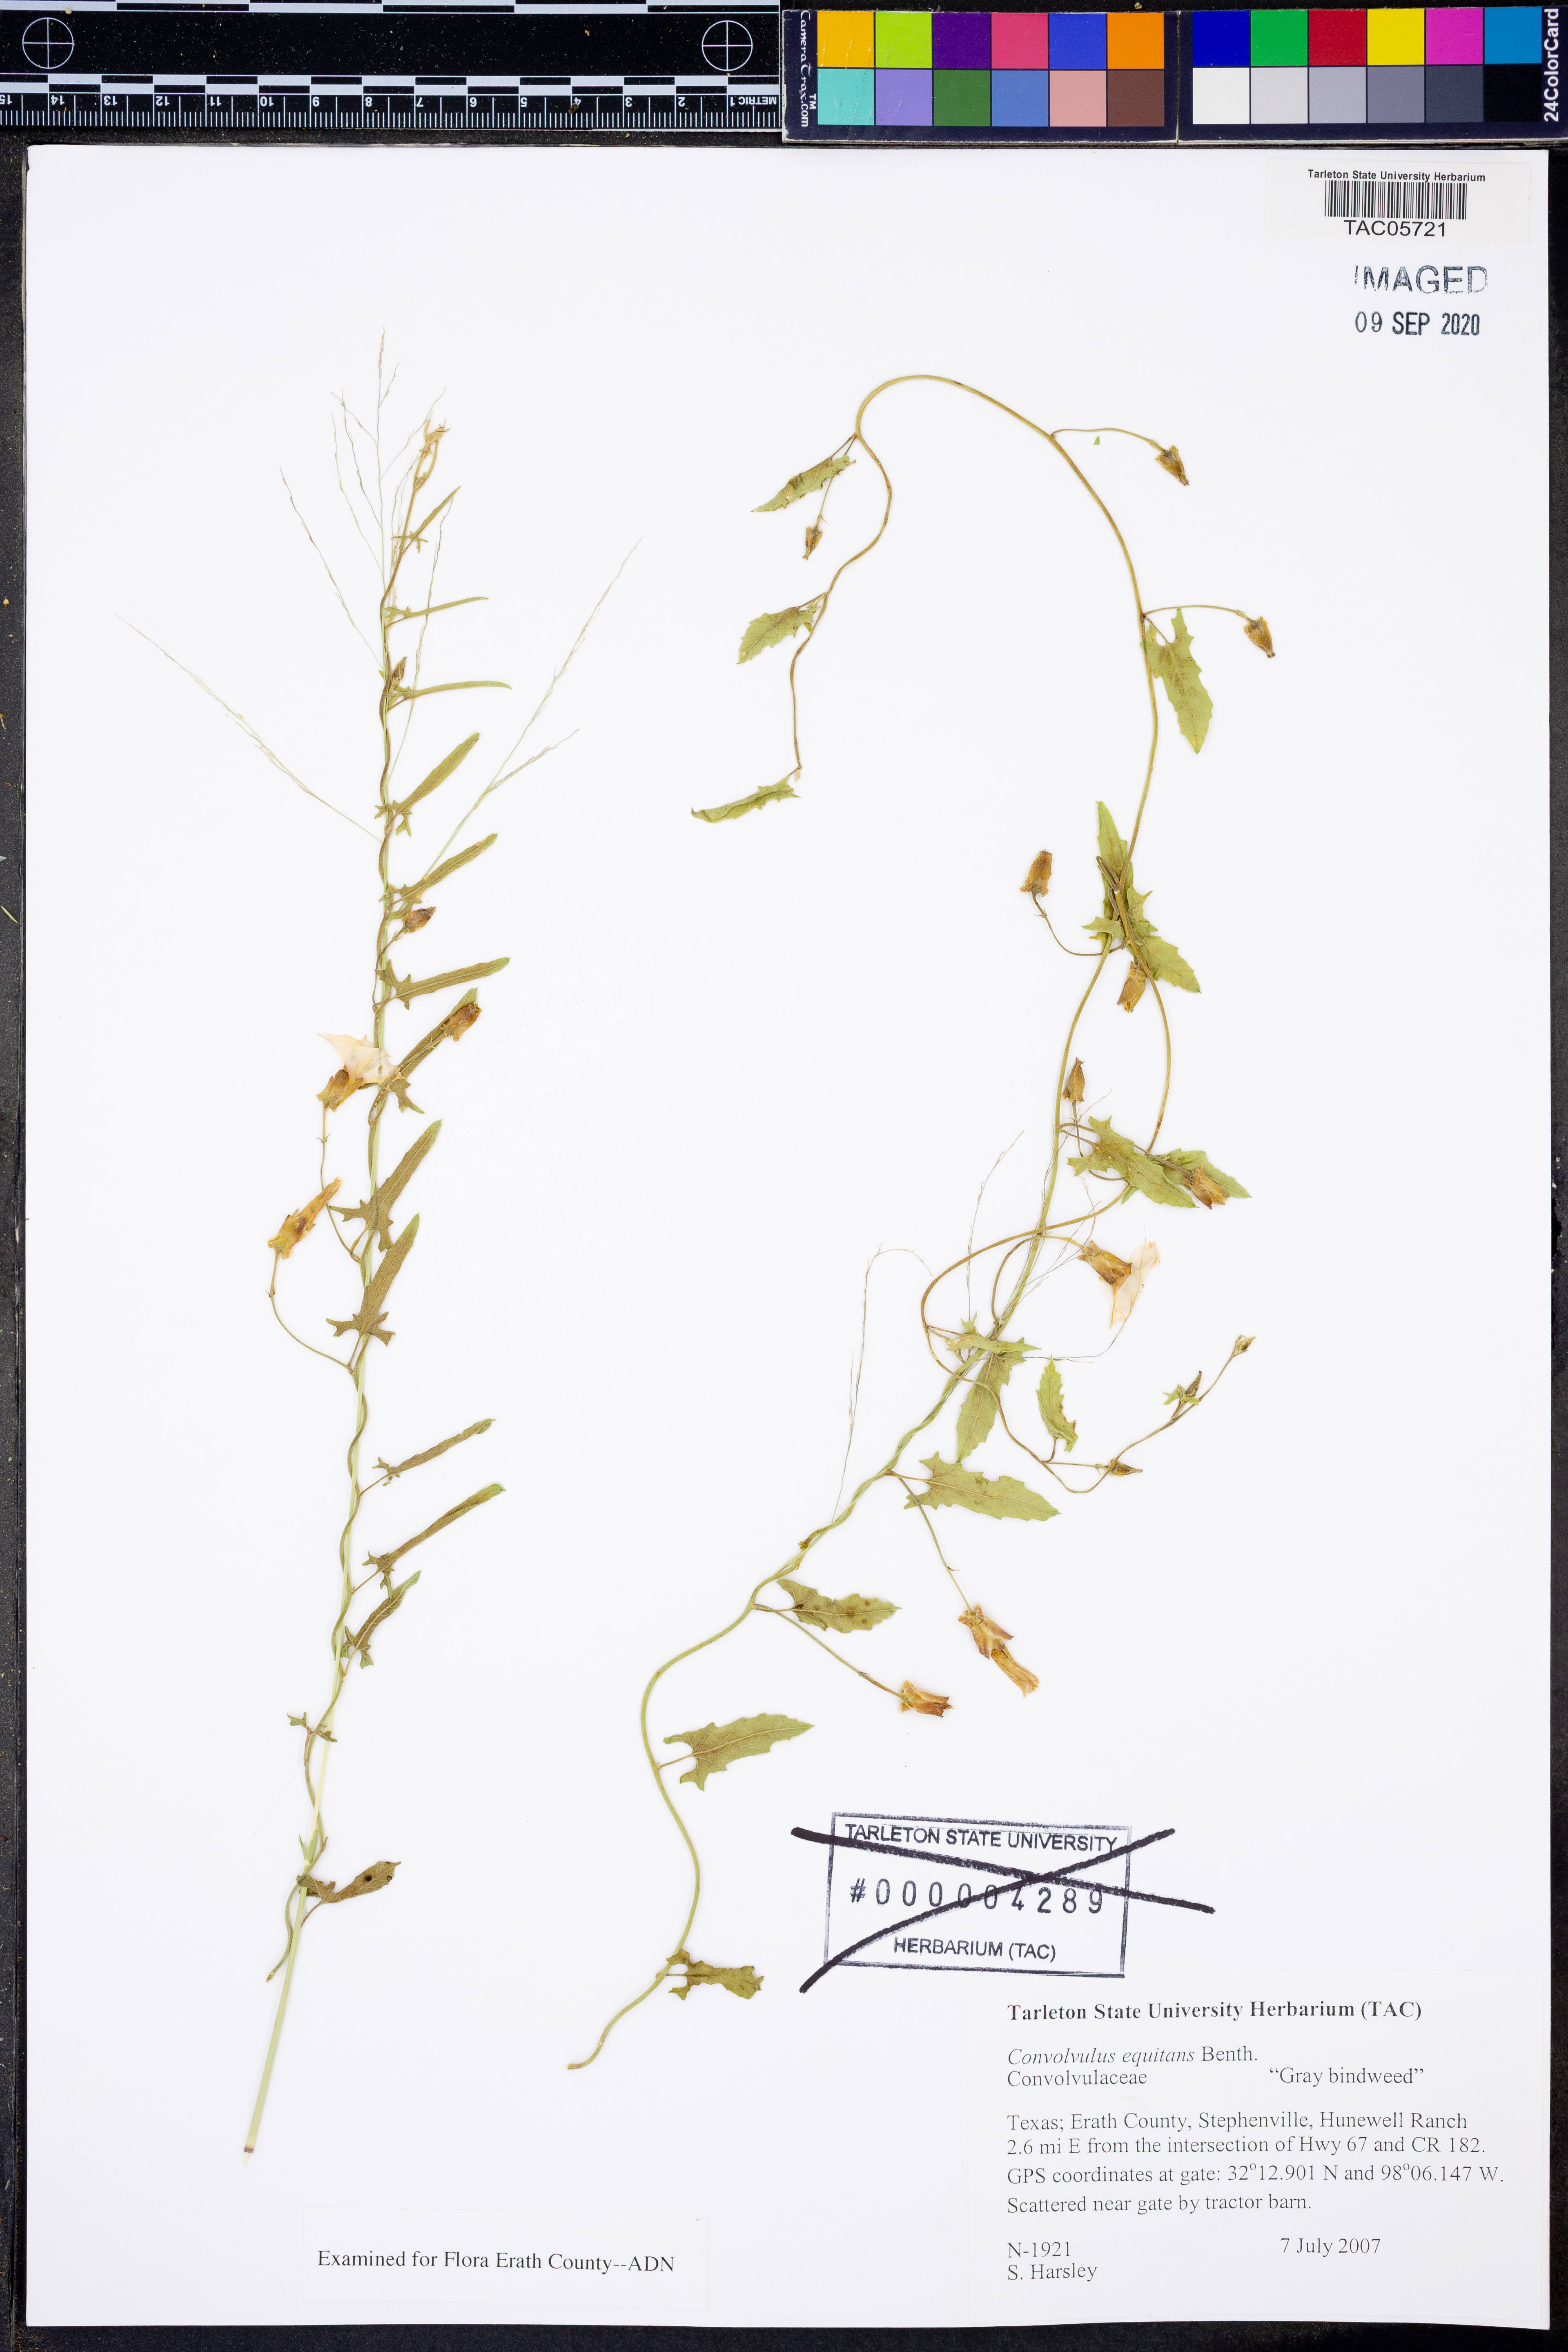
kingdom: Plantae
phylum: Tracheophyta
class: Magnoliopsida
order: Solanales
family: Convolvulaceae
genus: Convolvulus
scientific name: Convolvulus equitans
